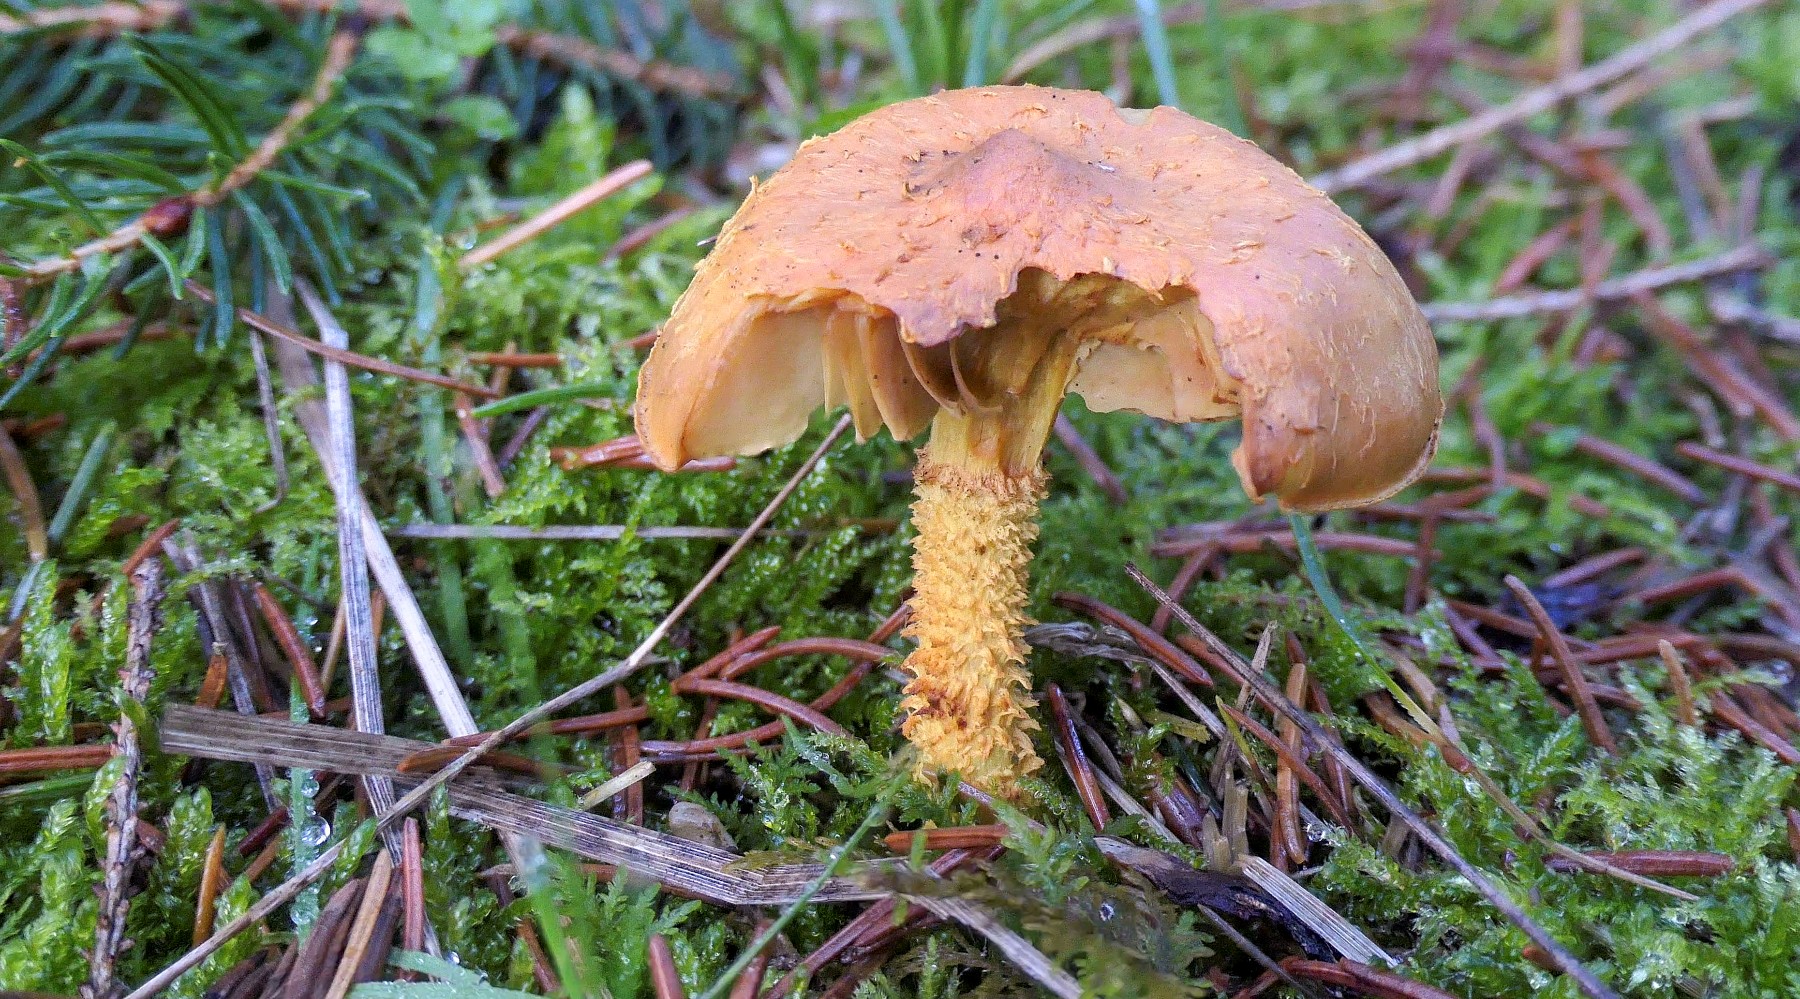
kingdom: Fungi
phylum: Basidiomycota
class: Agaricomycetes
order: Agaricales
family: Strophariaceae
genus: Pholiota
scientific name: Pholiota flammans
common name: flamme-skælhat
